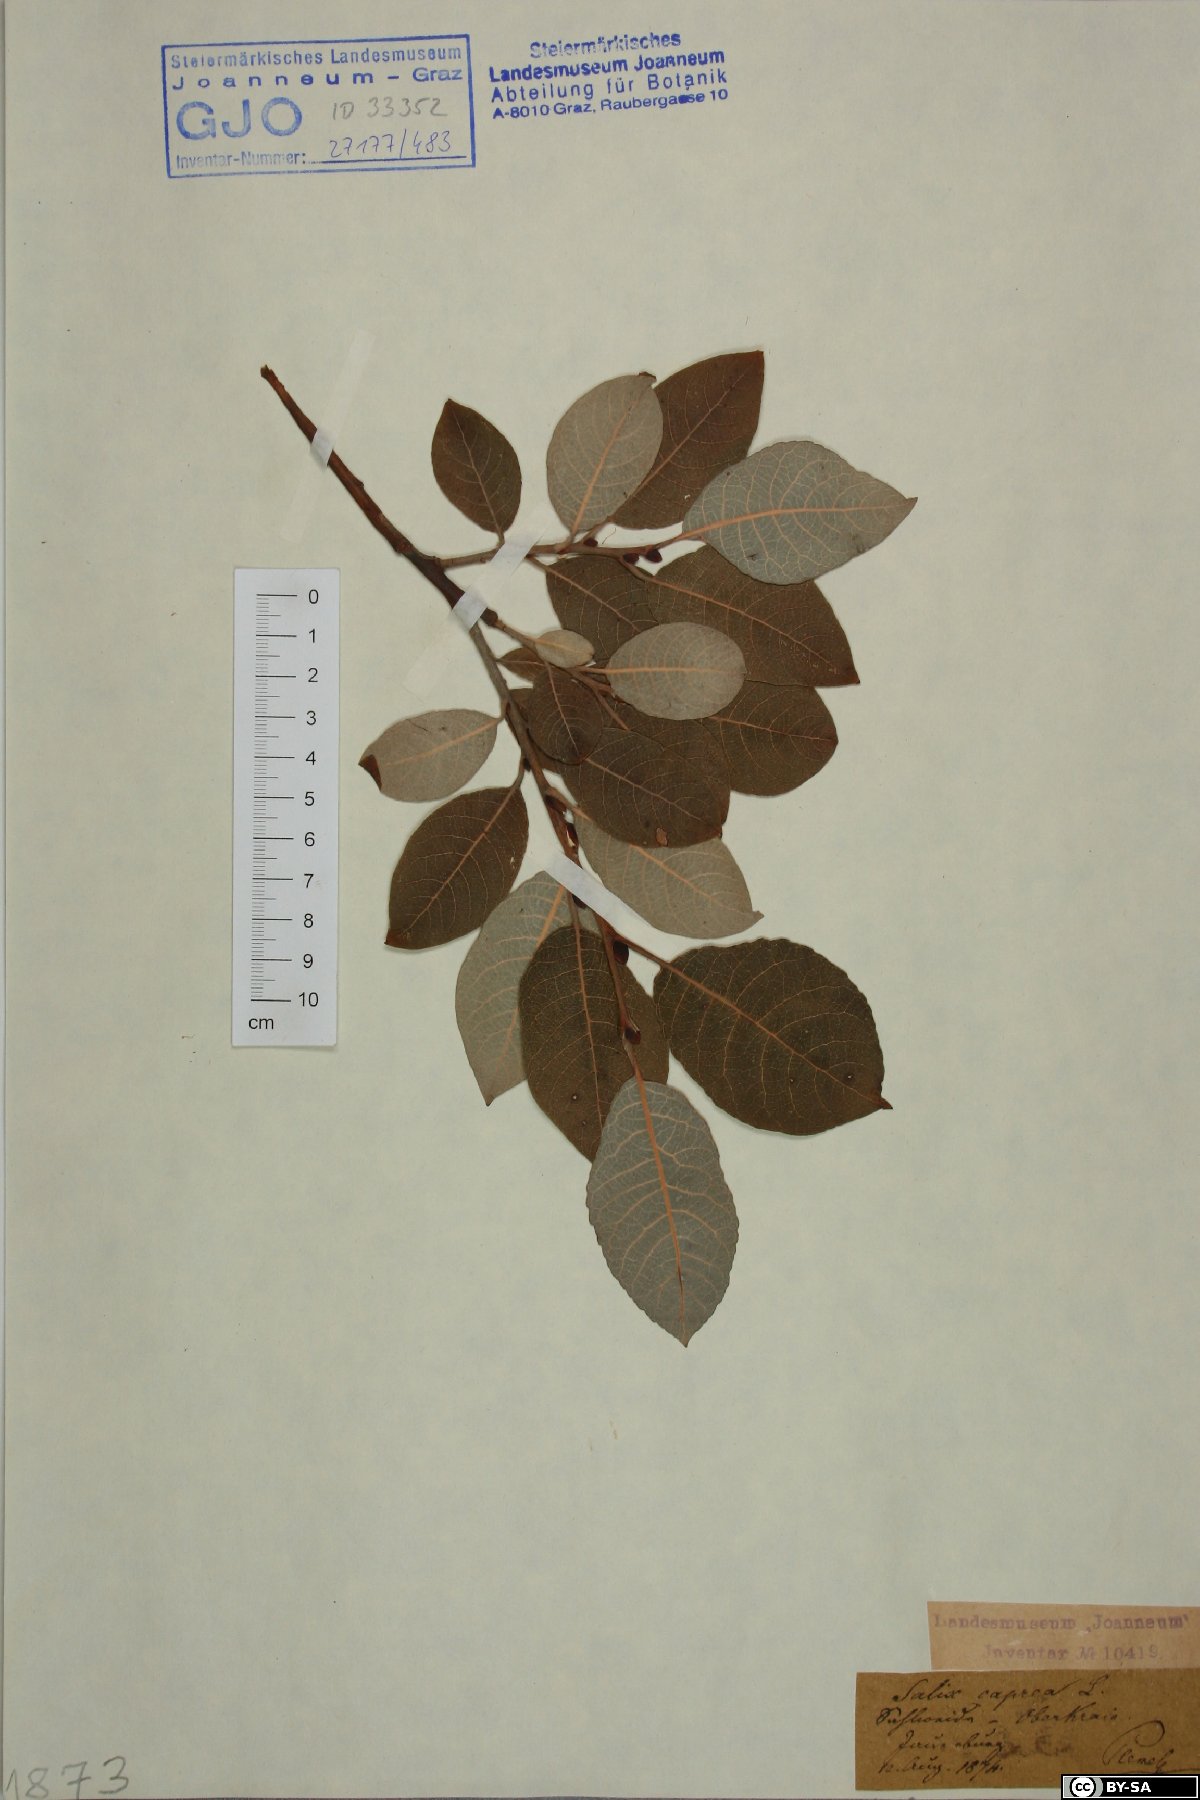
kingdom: Plantae
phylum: Tracheophyta
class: Magnoliopsida
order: Malpighiales
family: Salicaceae
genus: Salix
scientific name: Salix caprea
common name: Goat willow
